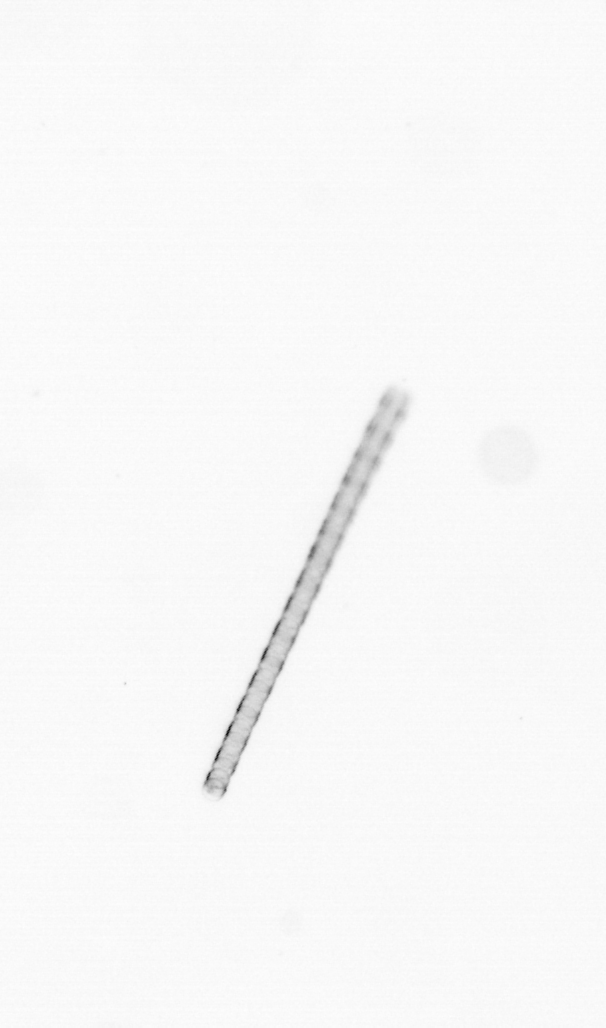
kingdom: Chromista
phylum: Ochrophyta
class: Bacillariophyceae
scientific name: Bacillariophyceae
